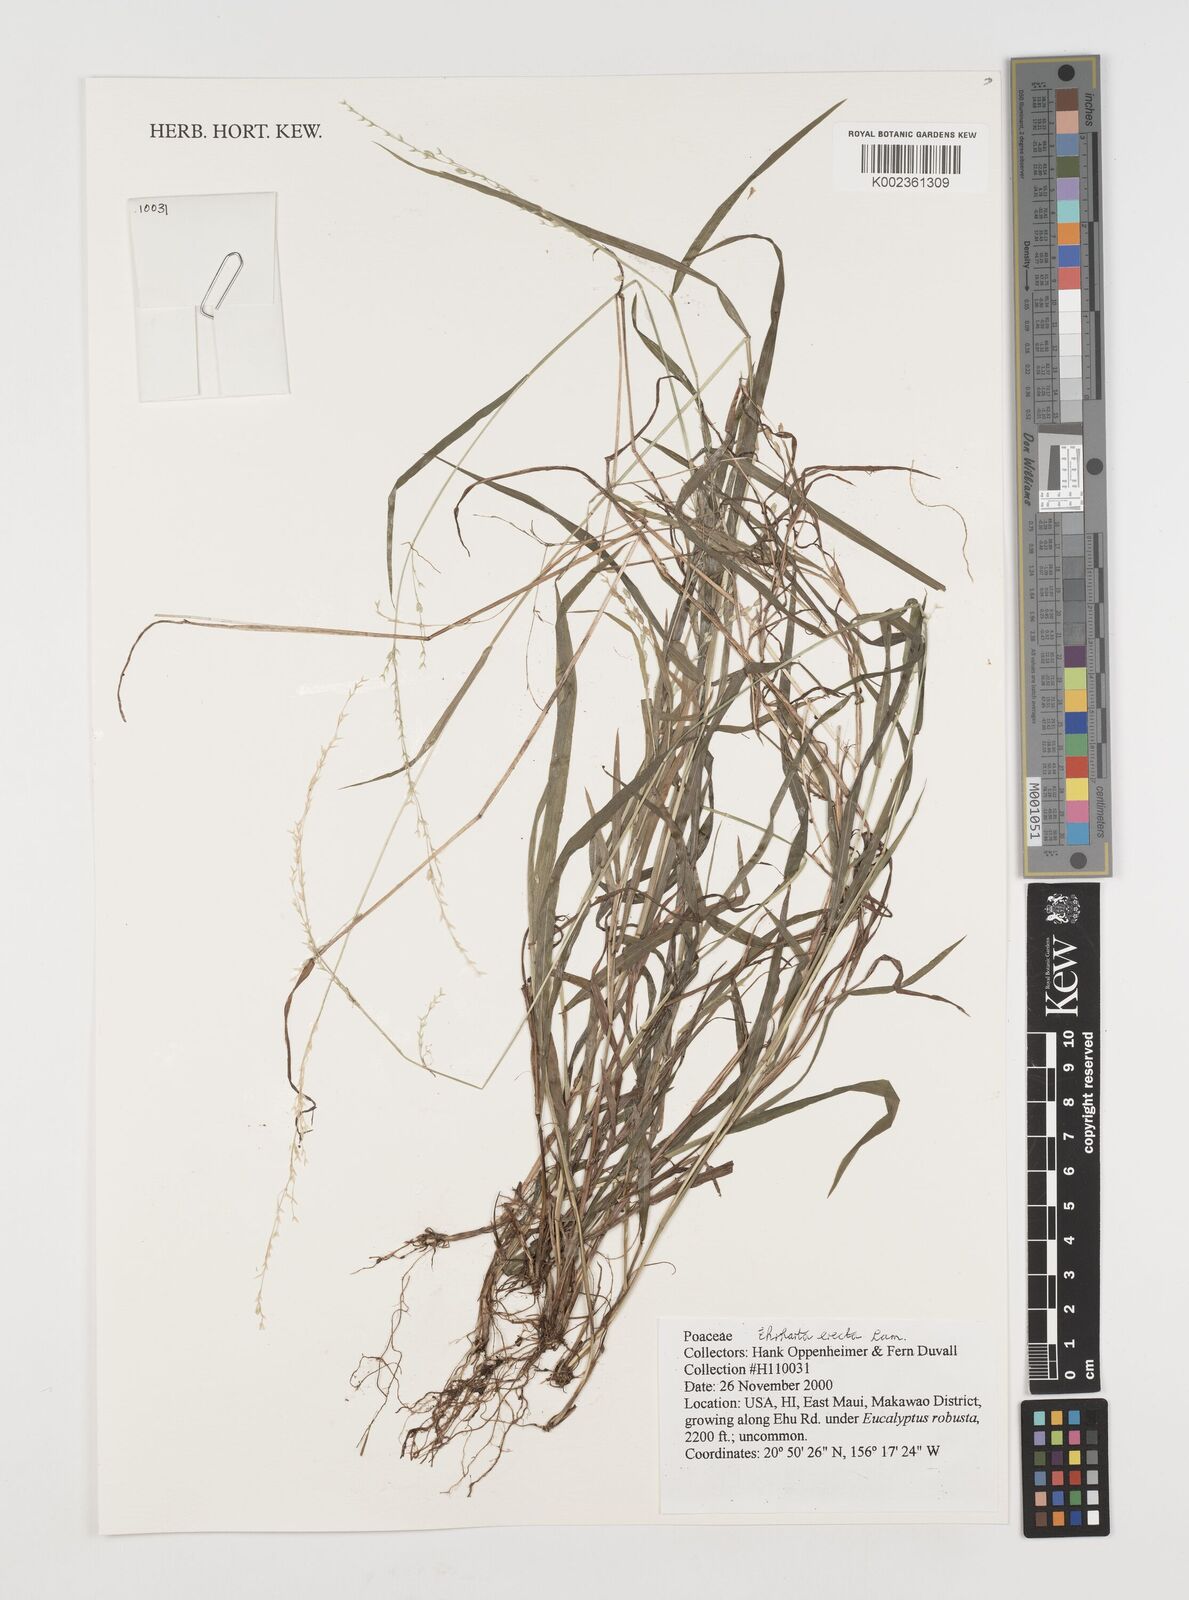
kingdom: Plantae
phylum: Tracheophyta
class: Liliopsida
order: Poales
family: Poaceae
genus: Ehrharta
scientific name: Ehrharta erecta
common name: Panic veldtgrass
